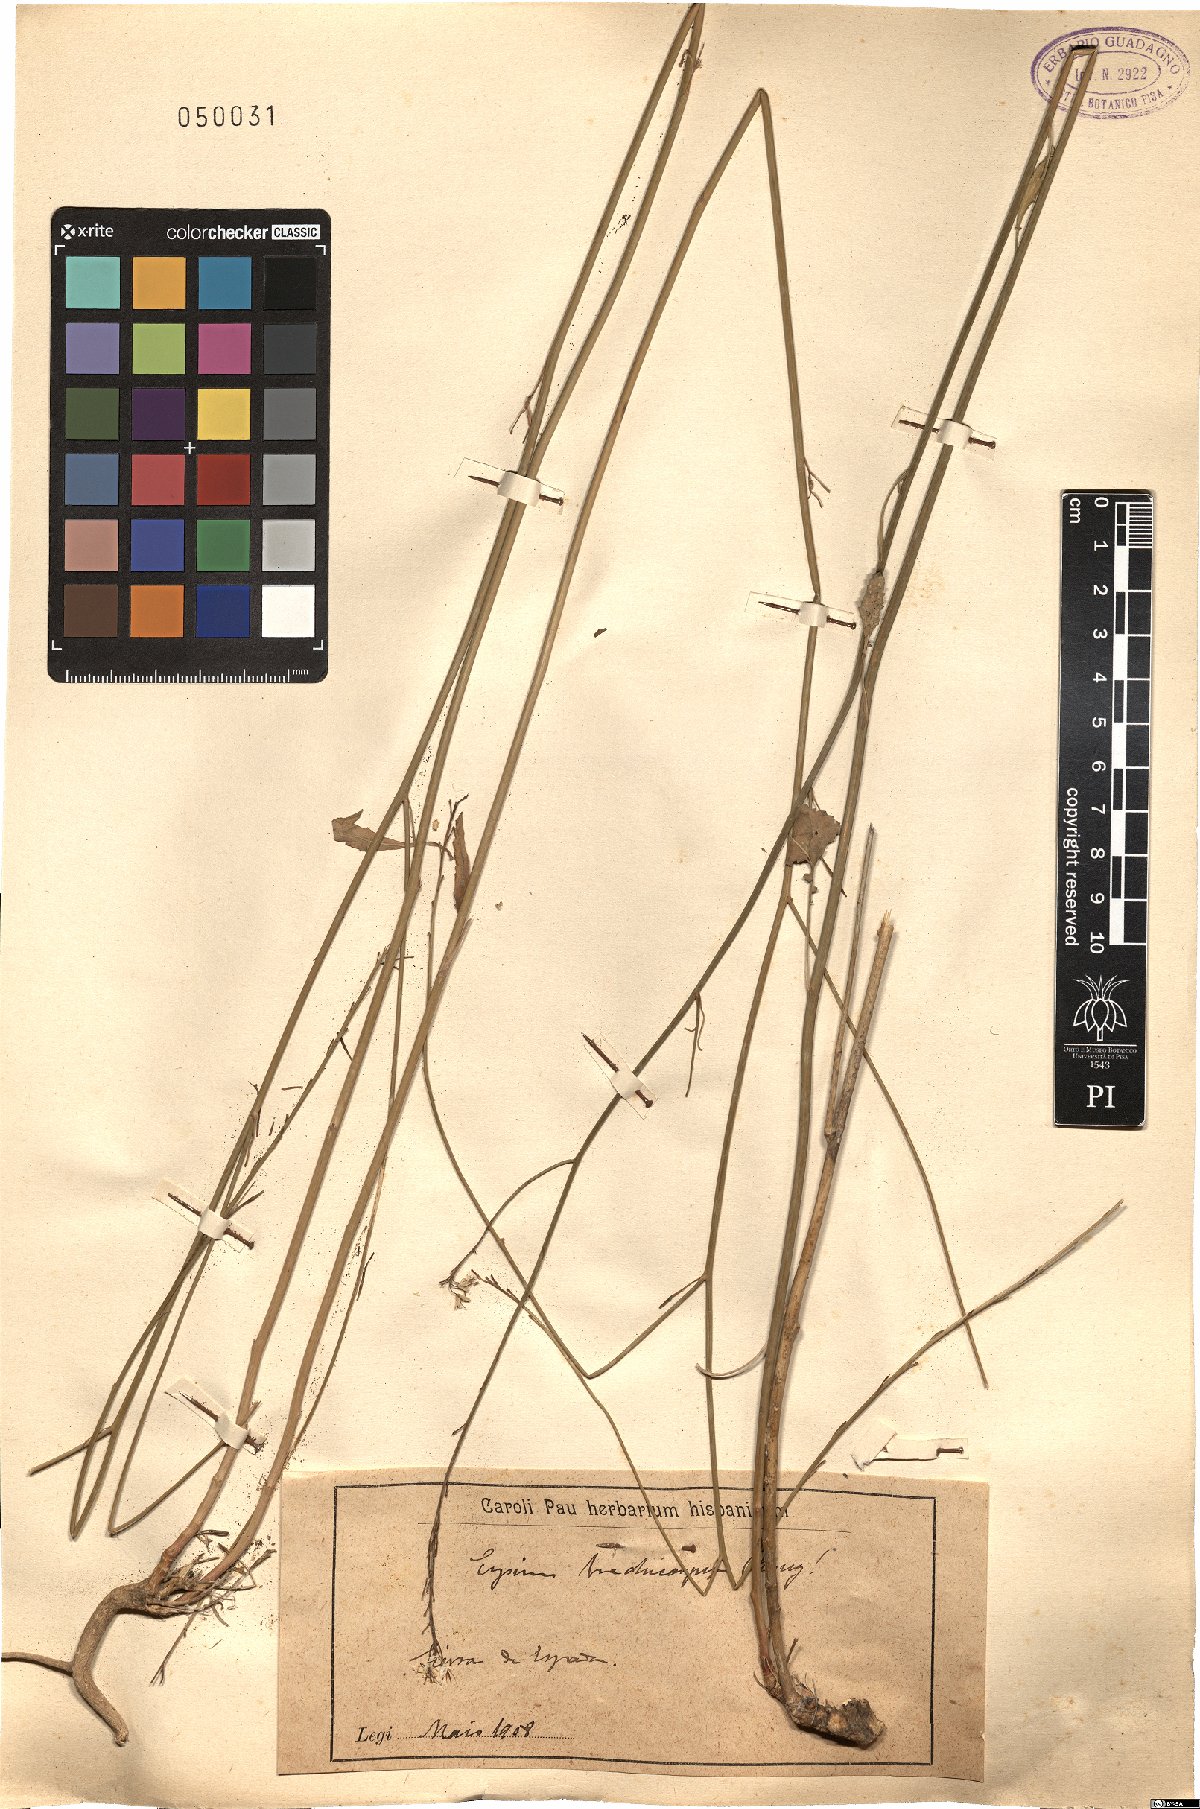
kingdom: Plantae
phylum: Tracheophyta
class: Magnoliopsida
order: Brassicales
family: Brassicaceae
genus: Erysimum
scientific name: Erysimum
